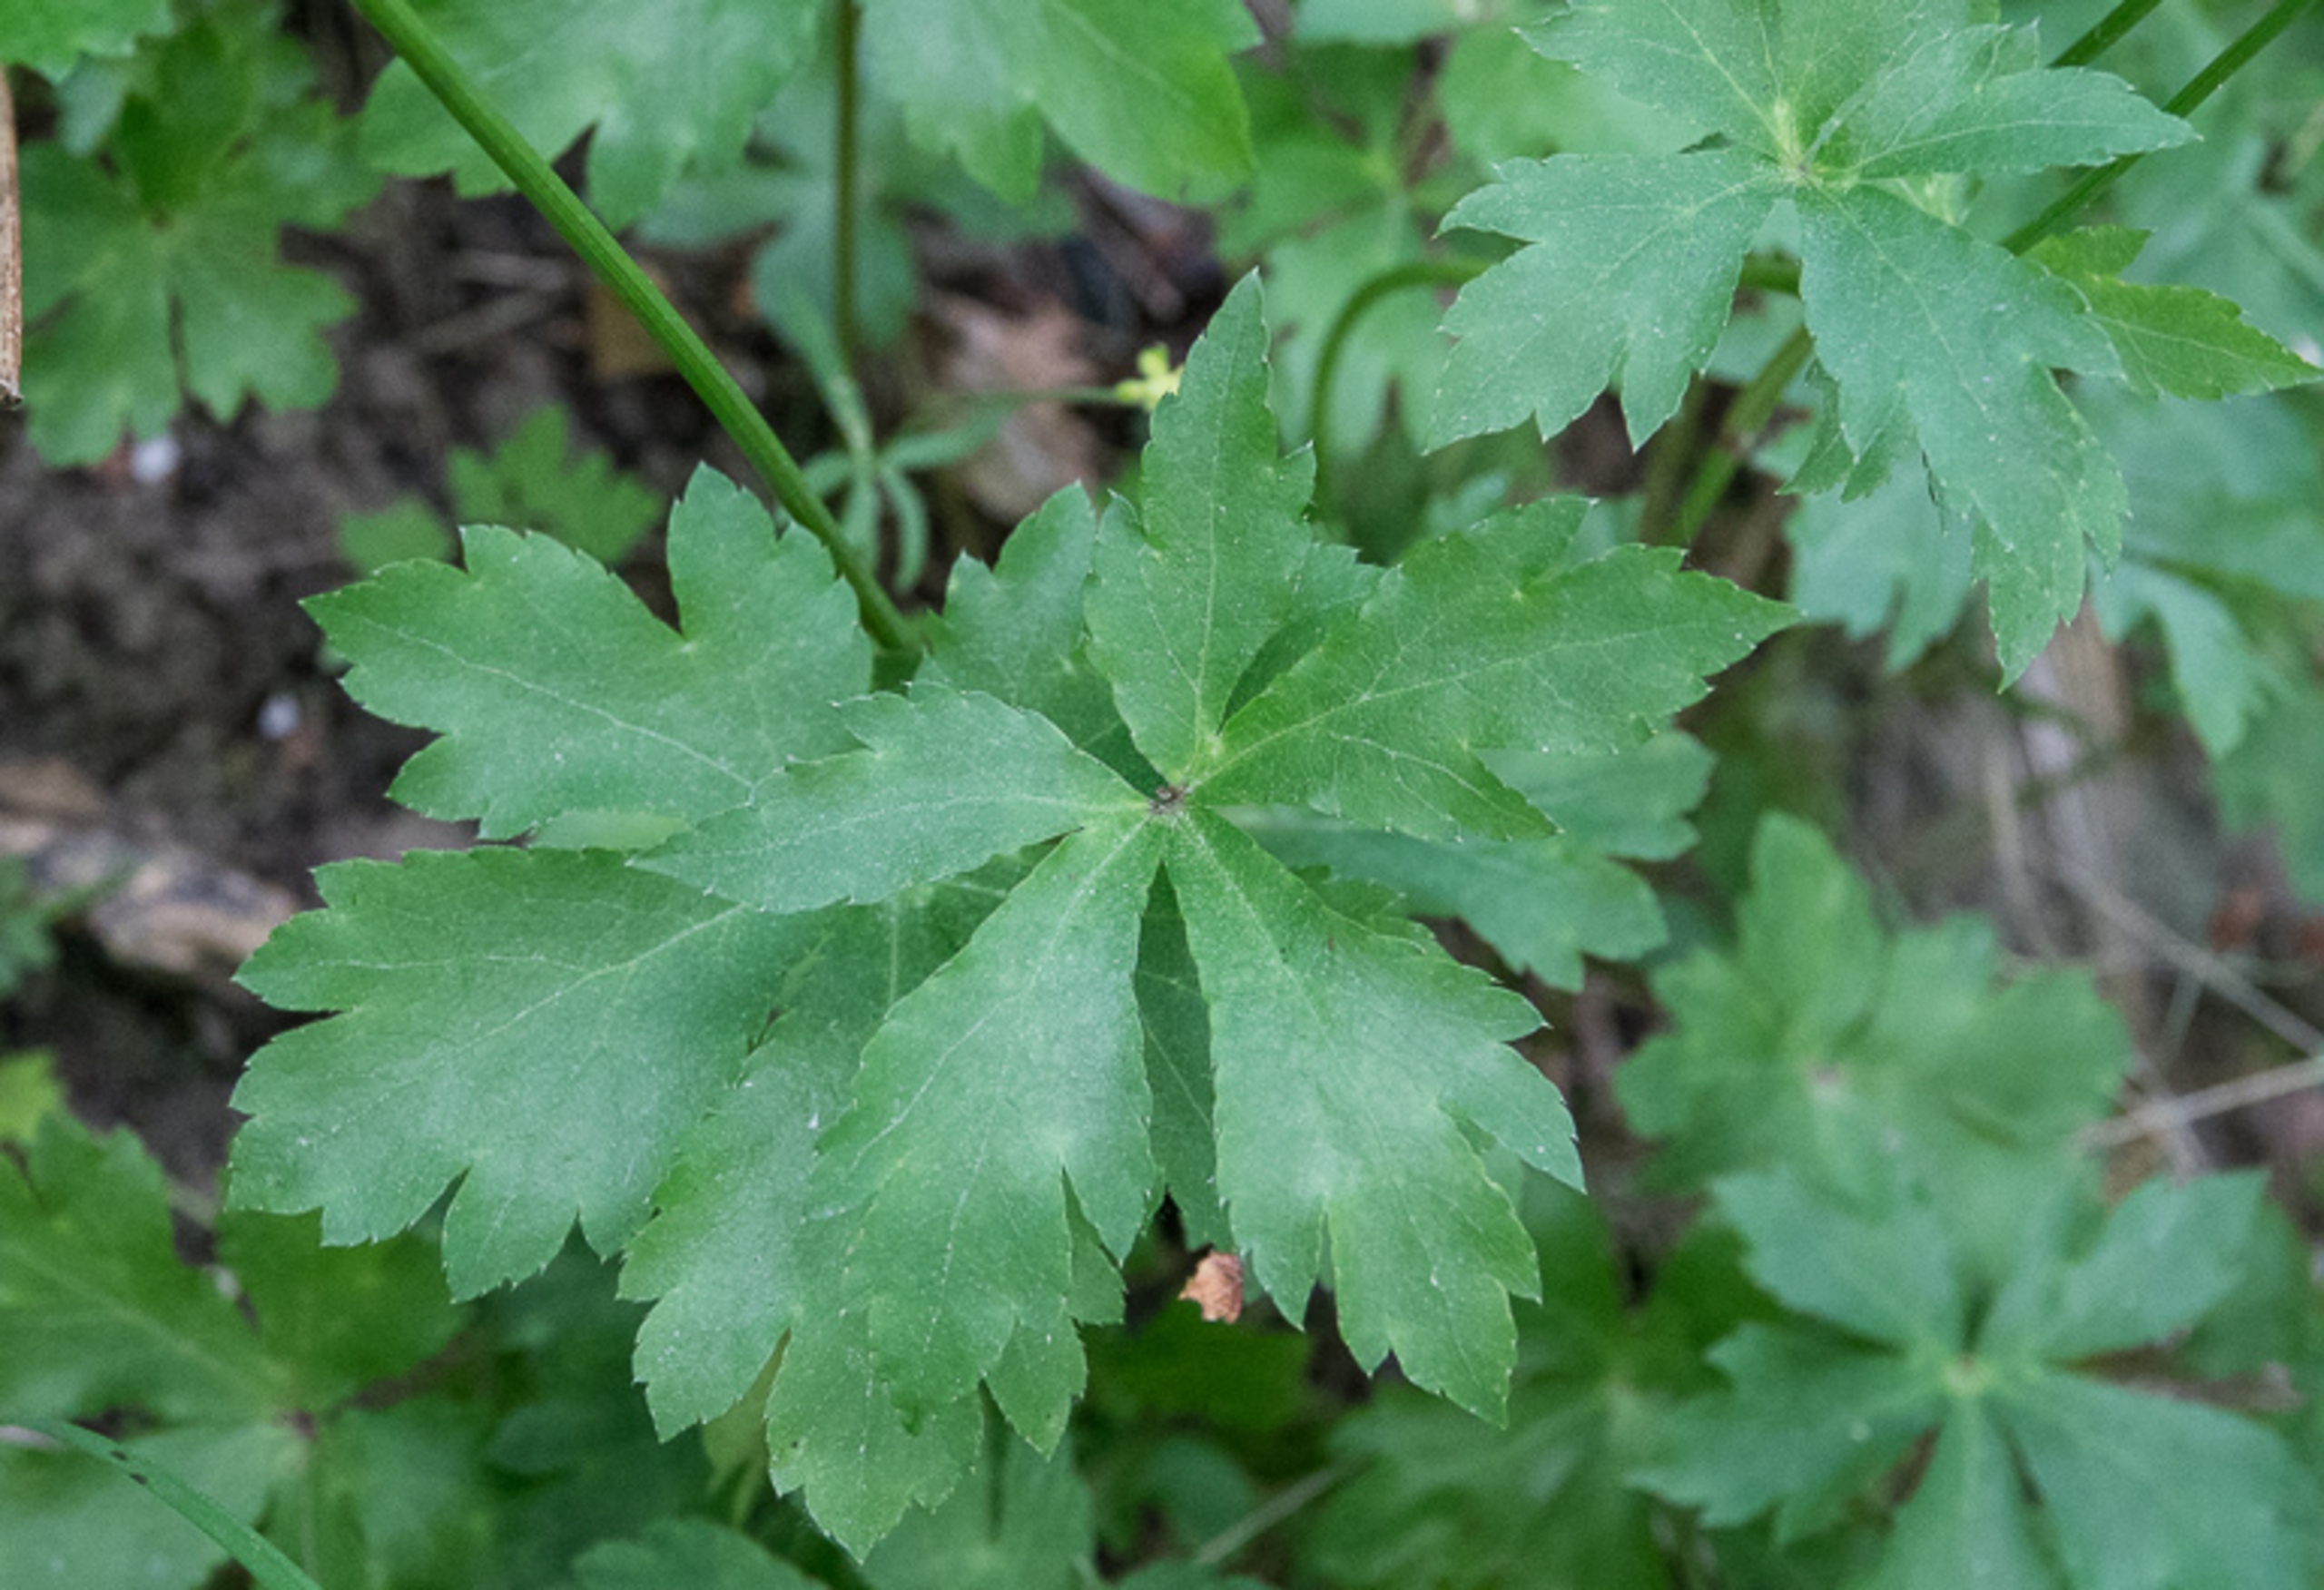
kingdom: Plantae
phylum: Tracheophyta
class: Magnoliopsida
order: Apiales
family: Apiaceae
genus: Sanicula
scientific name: Sanicula europaea
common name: Sanikel
